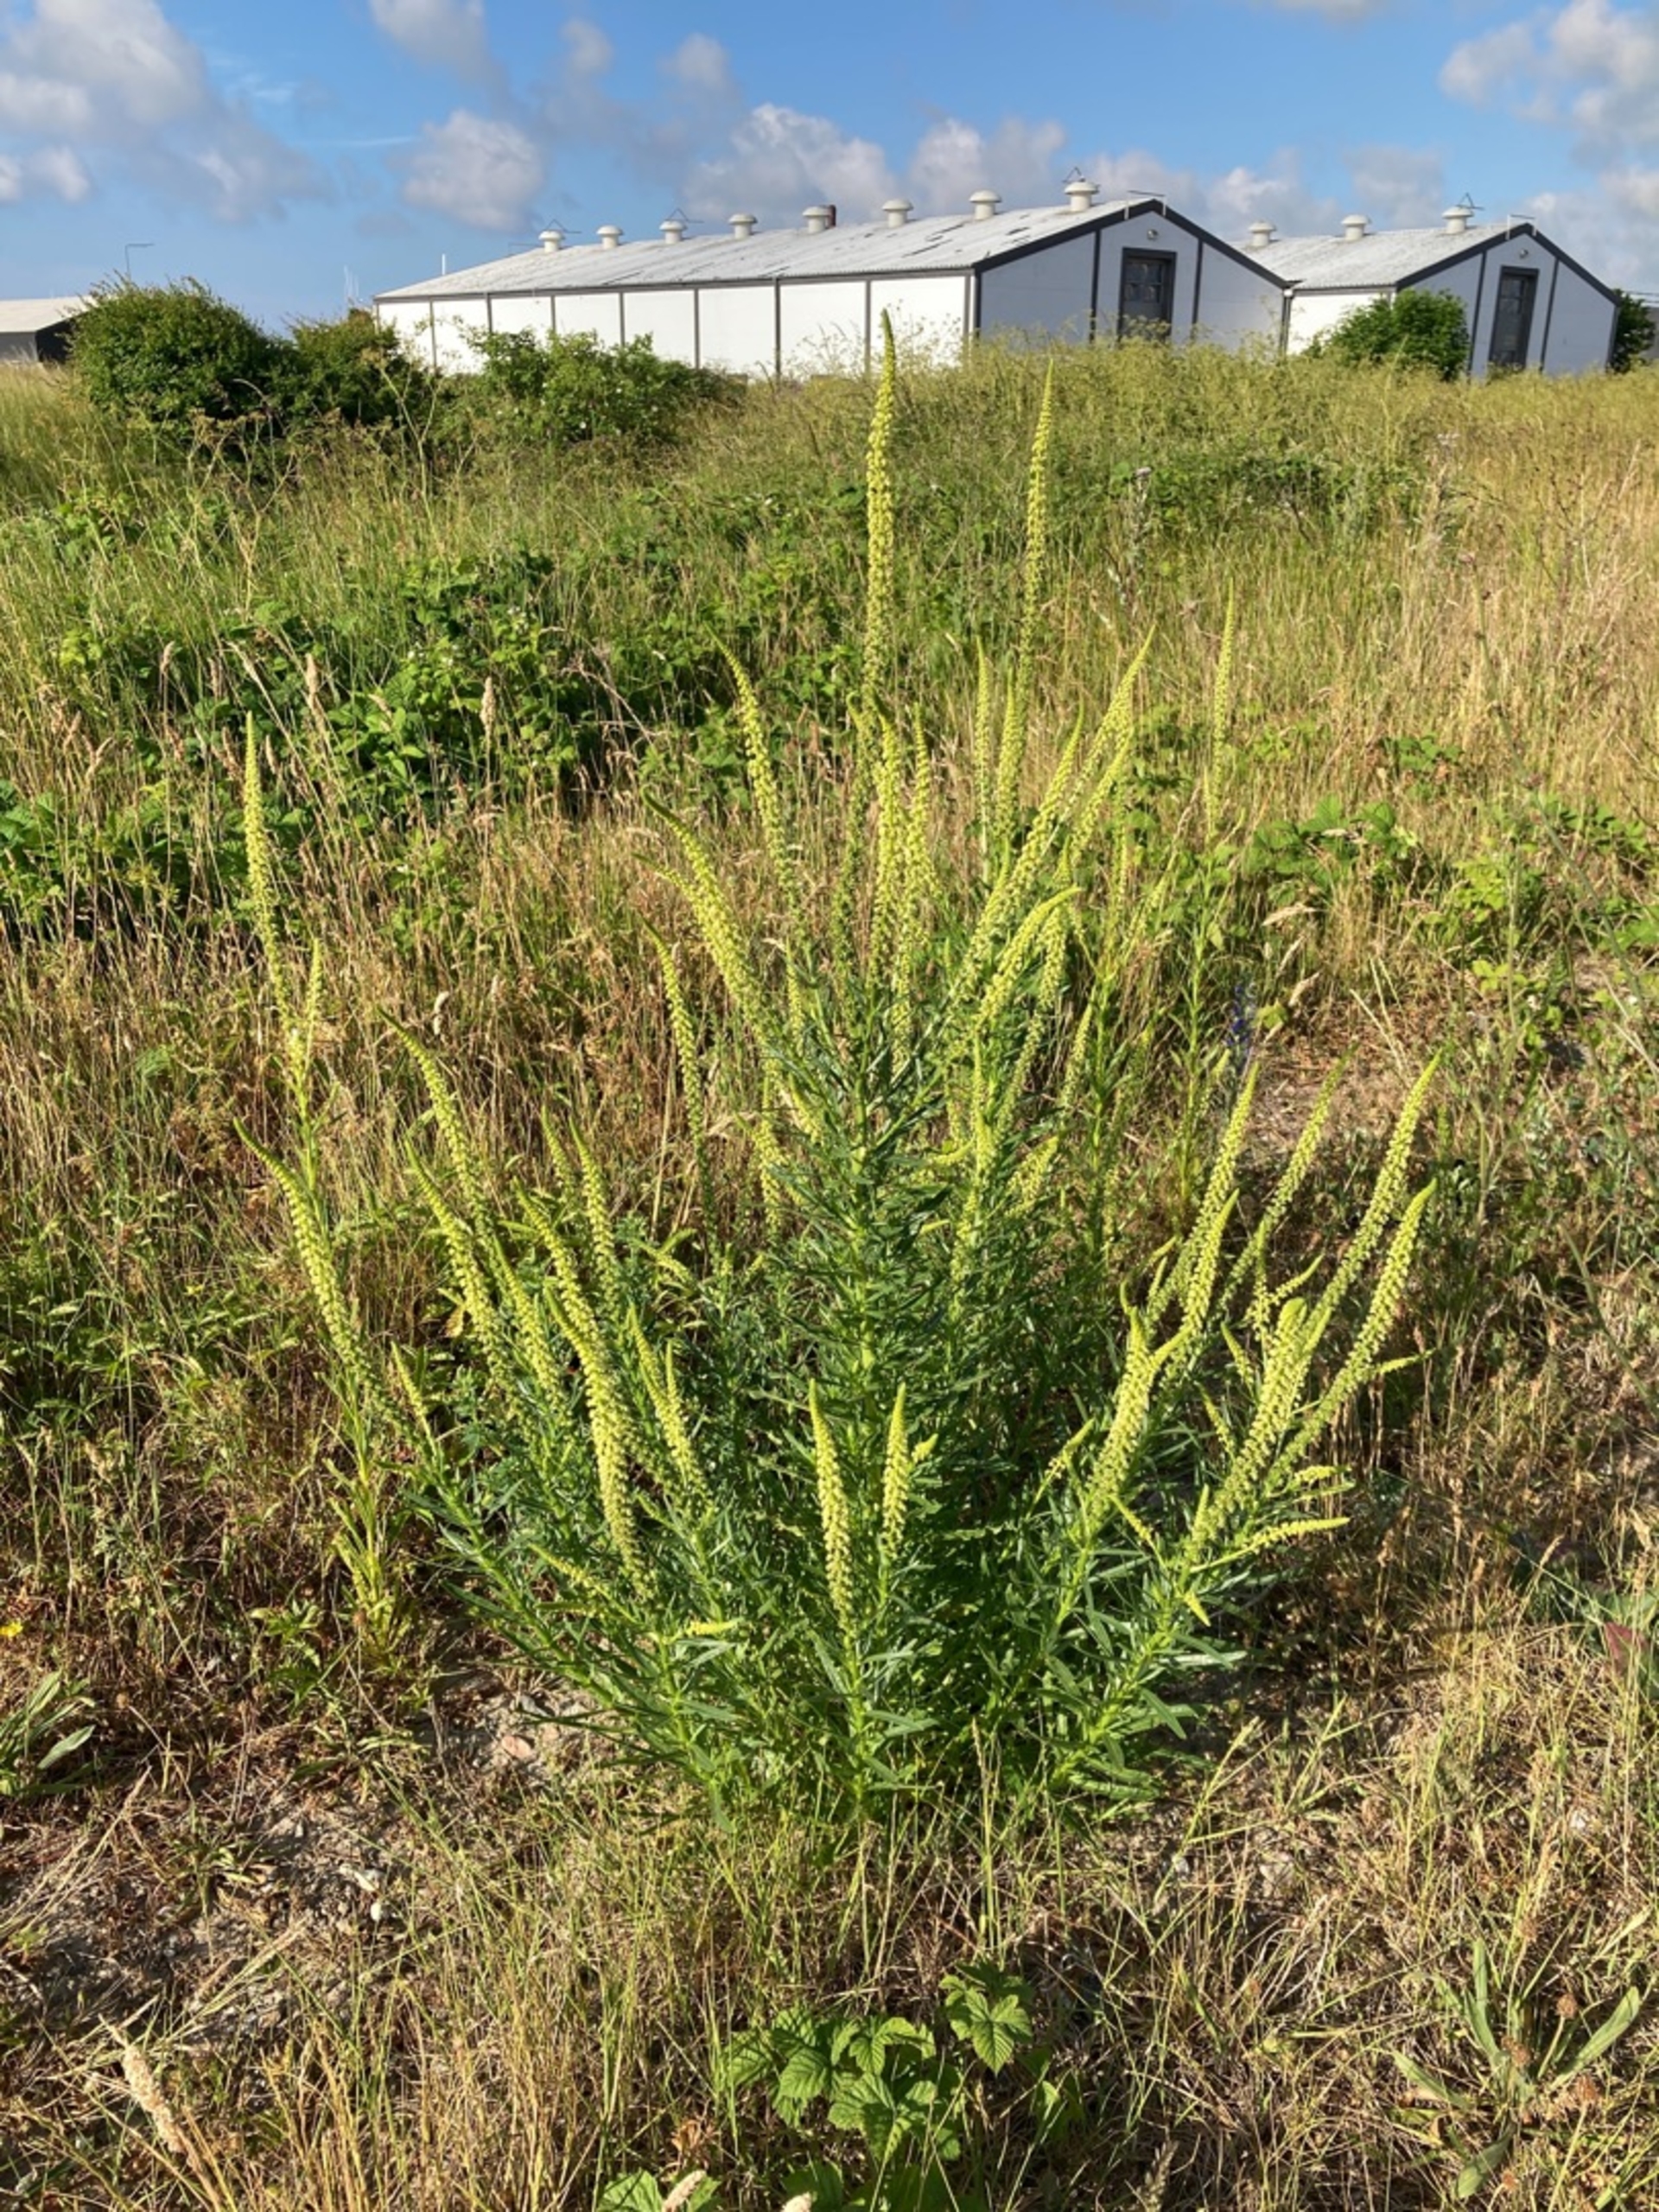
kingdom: Plantae
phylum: Tracheophyta
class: Magnoliopsida
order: Brassicales
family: Resedaceae
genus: Reseda
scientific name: Reseda luteola
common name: Farve-reseda
